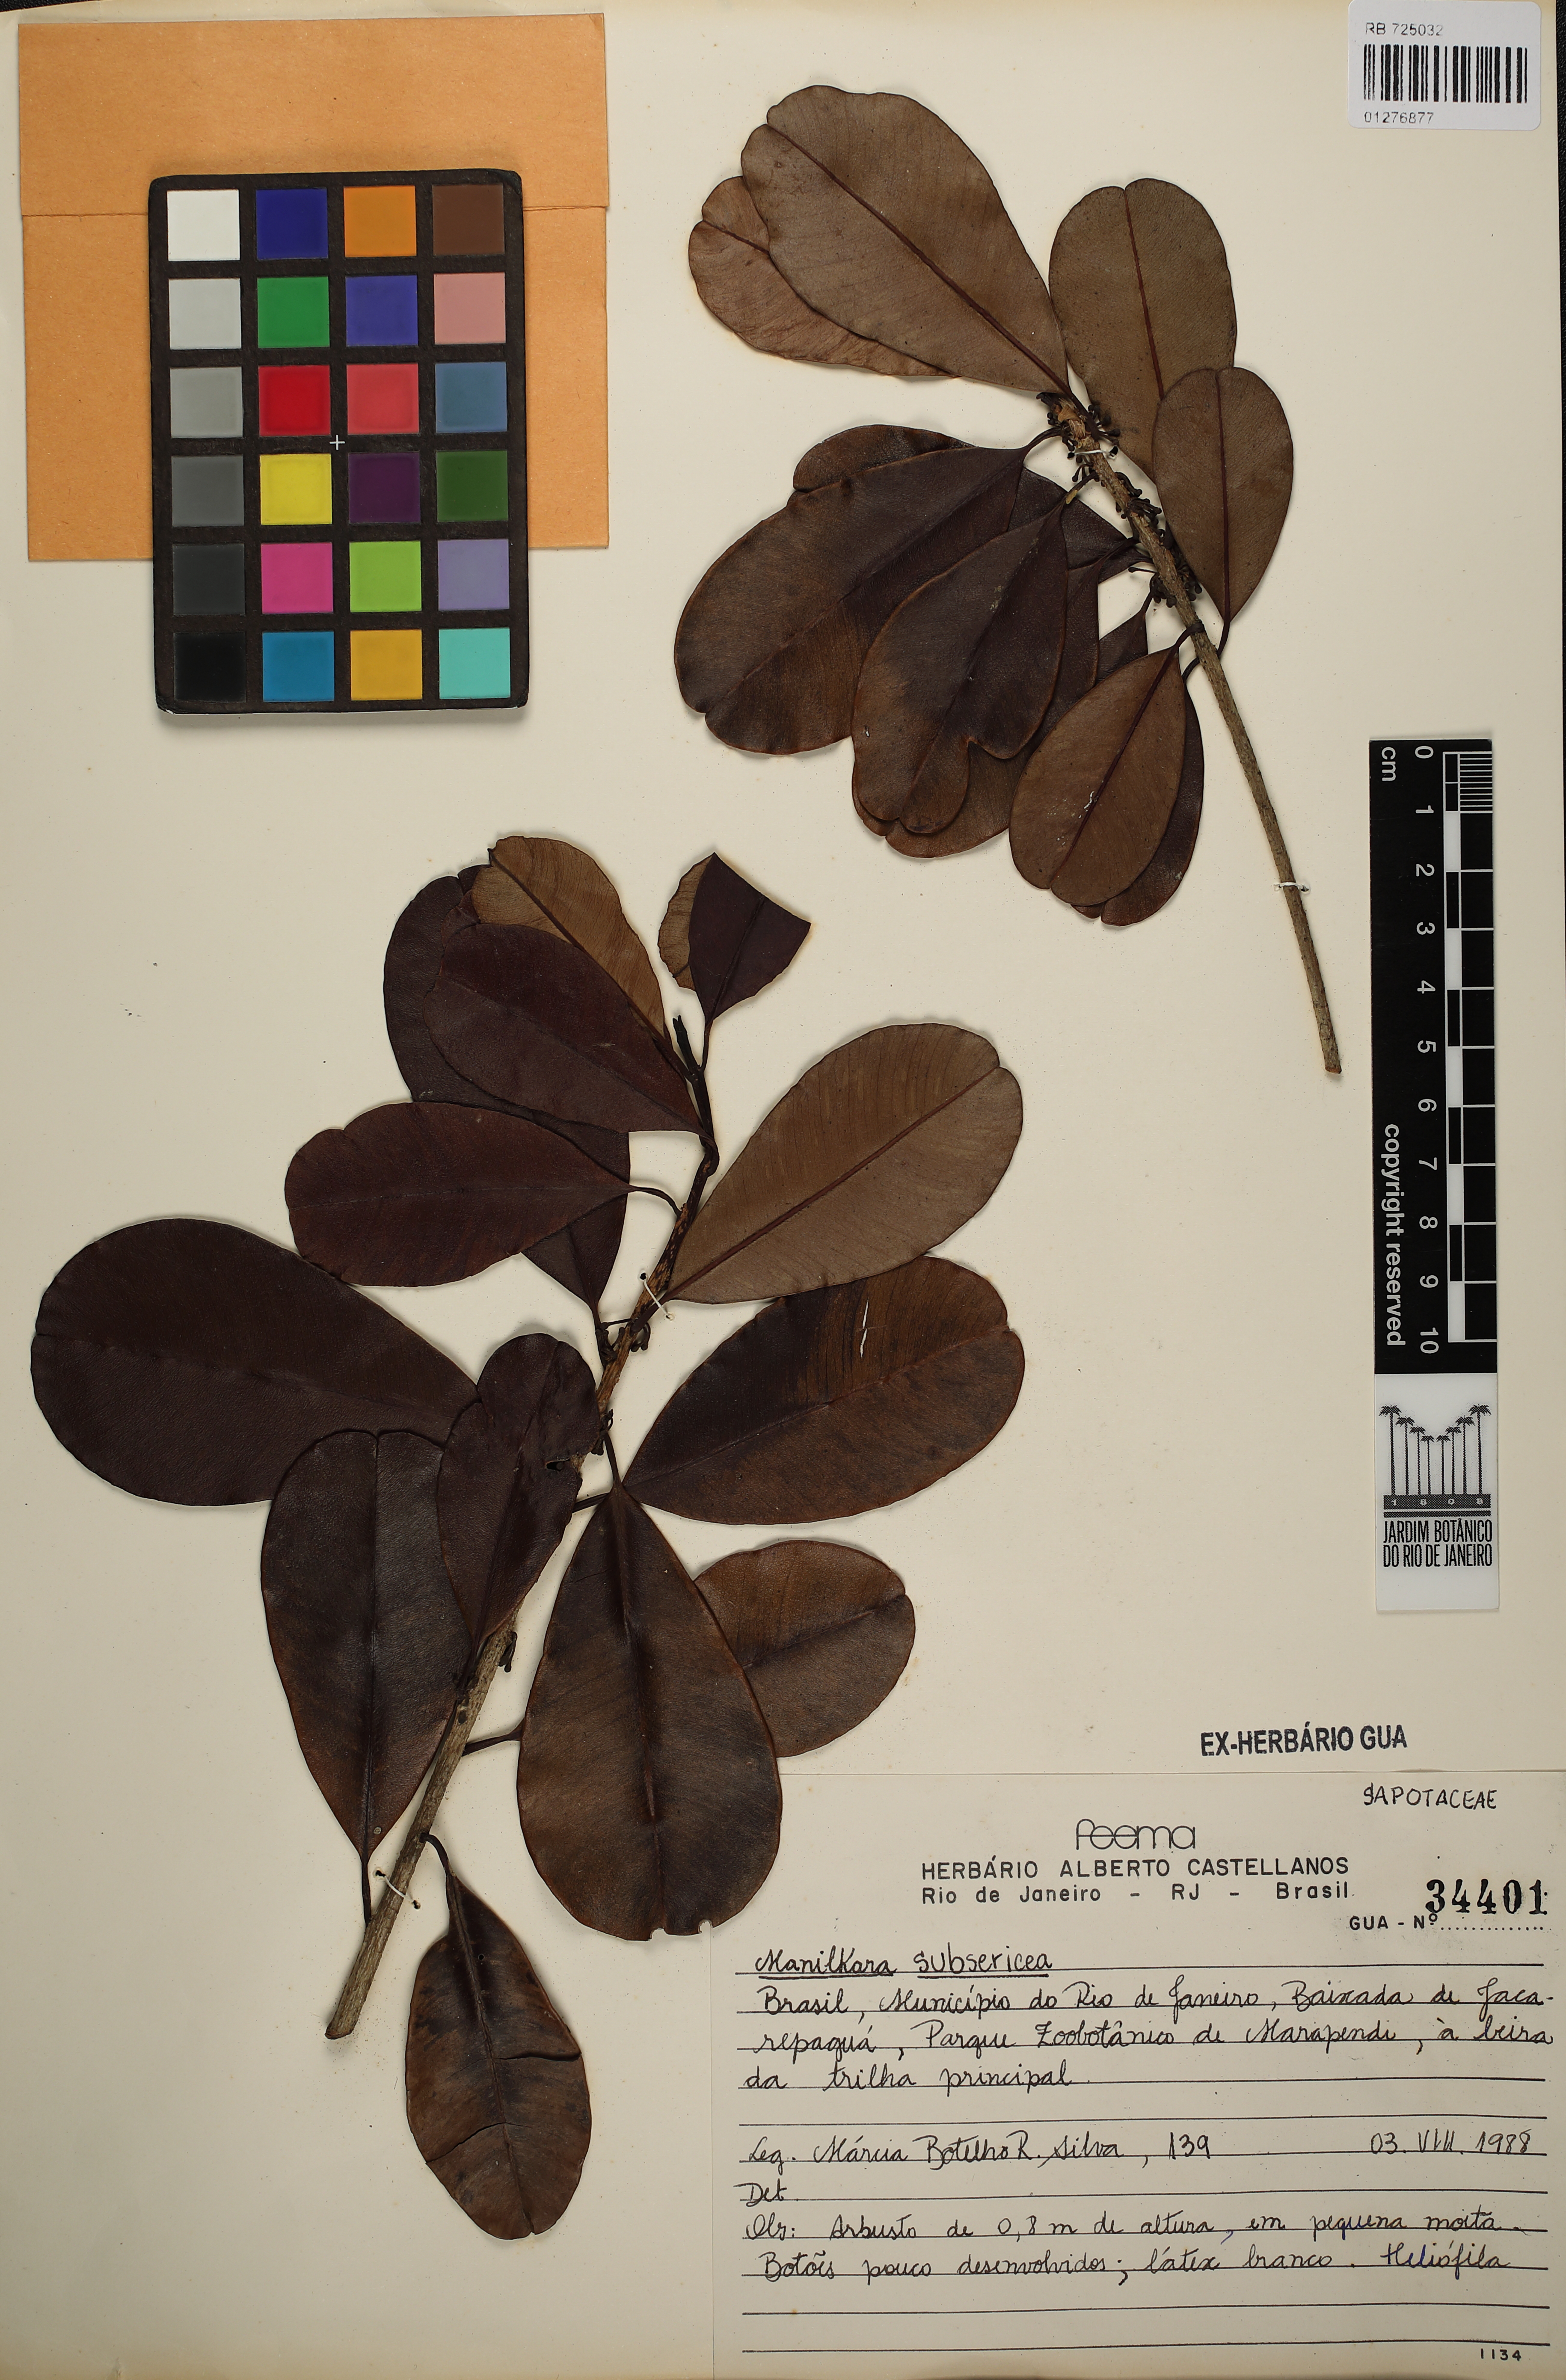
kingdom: Plantae
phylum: Tracheophyta
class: Magnoliopsida
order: Ericales
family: Sapotaceae
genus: Manilkara
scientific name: Manilkara subsericea
